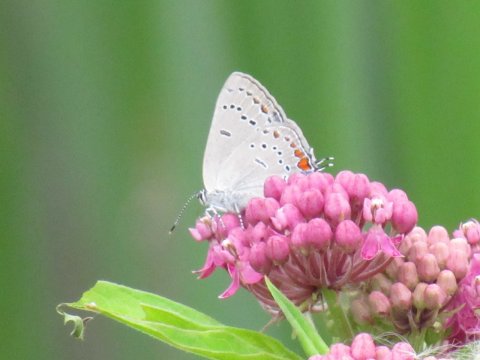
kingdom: Animalia
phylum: Arthropoda
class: Insecta
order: Lepidoptera
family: Lycaenidae
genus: Strymon
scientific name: Strymon acadica
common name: Acadian Hairstreak
